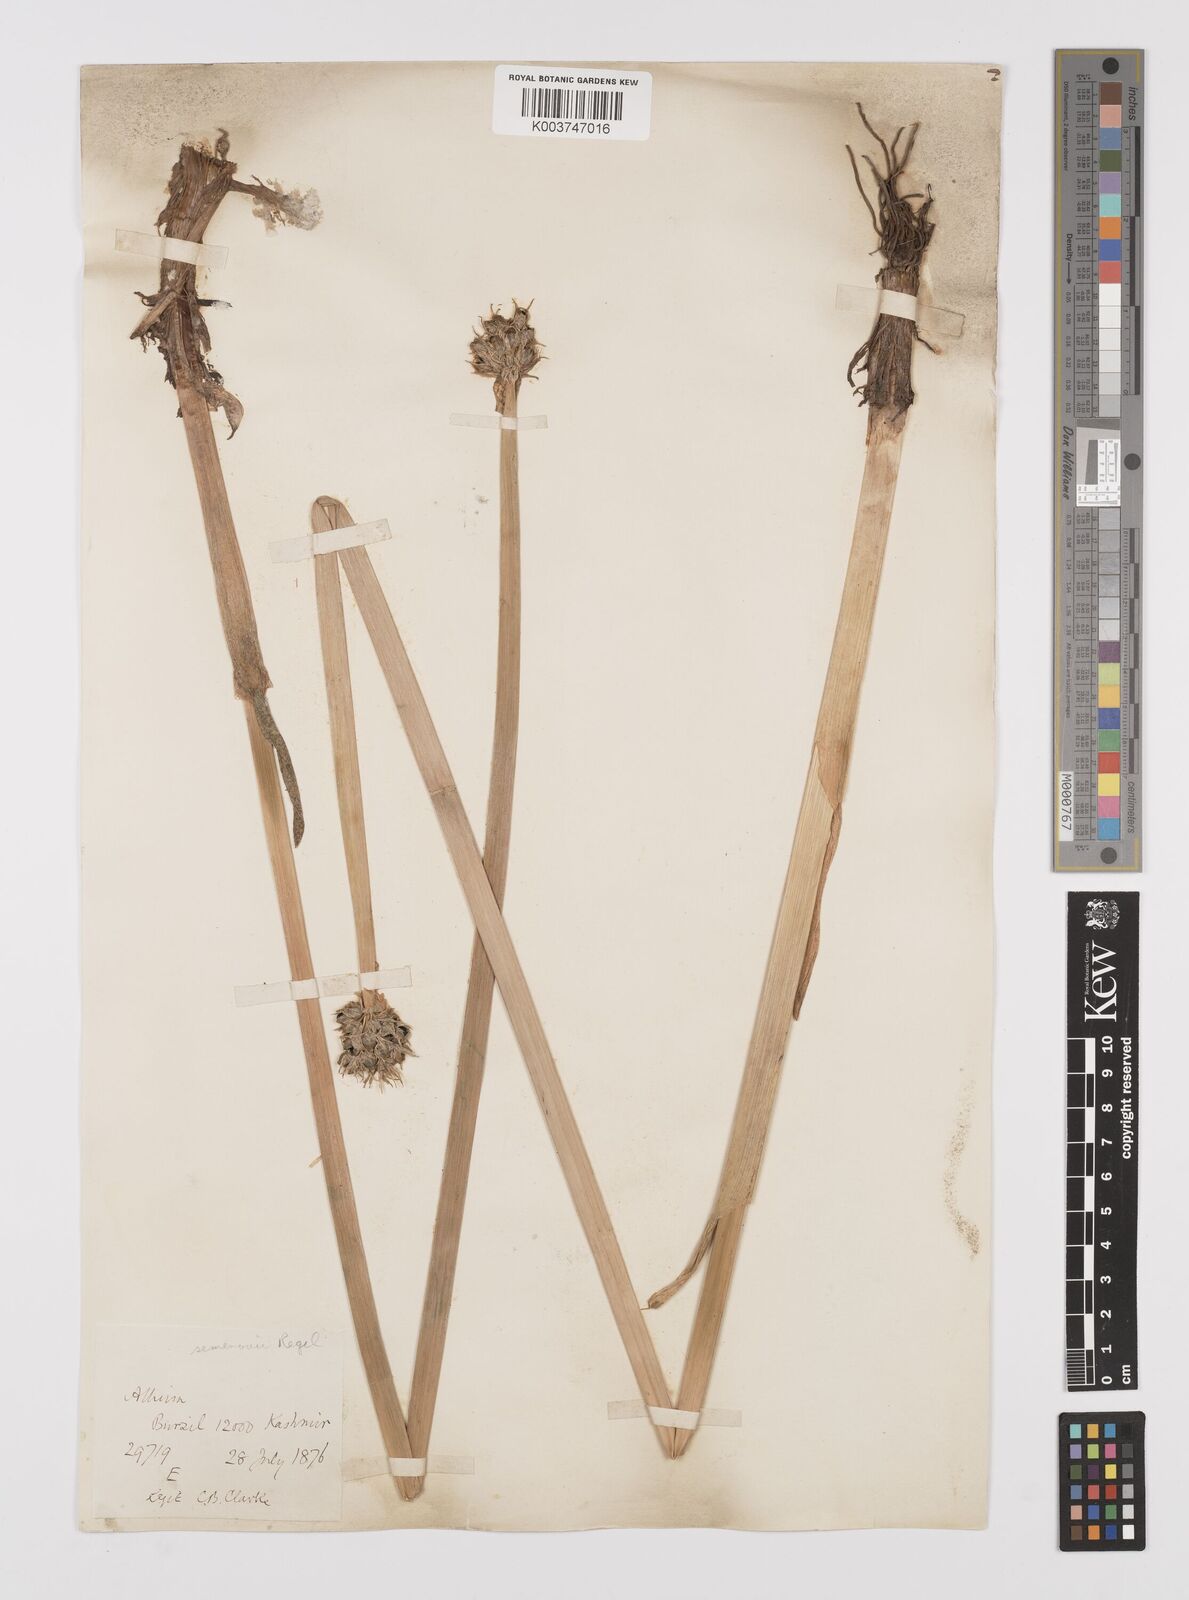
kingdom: Plantae
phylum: Tracheophyta
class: Liliopsida
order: Asparagales
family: Amaryllidaceae
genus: Allium
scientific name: Allium semenovii
